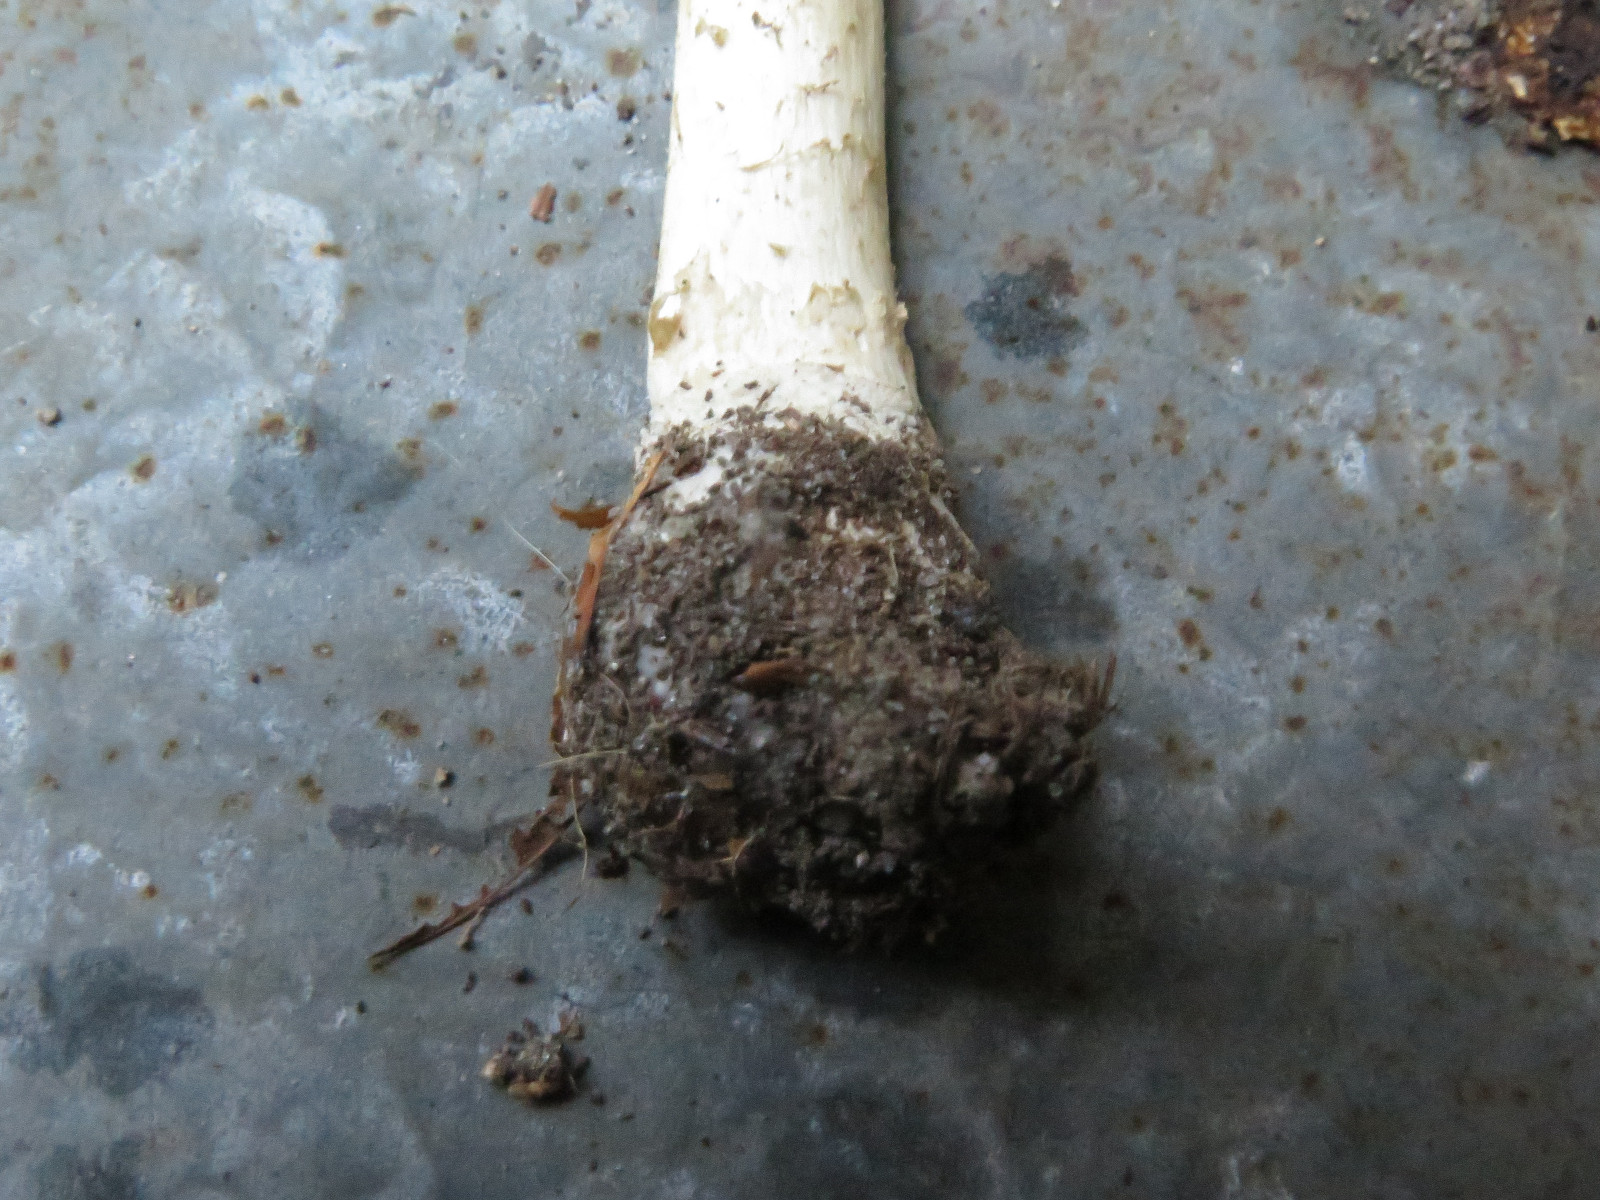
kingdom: Fungi
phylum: Basidiomycota
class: Agaricomycetes
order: Agaricales
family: Amanitaceae
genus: Amanita
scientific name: Amanita pantherina
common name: panter-fluesvamp
